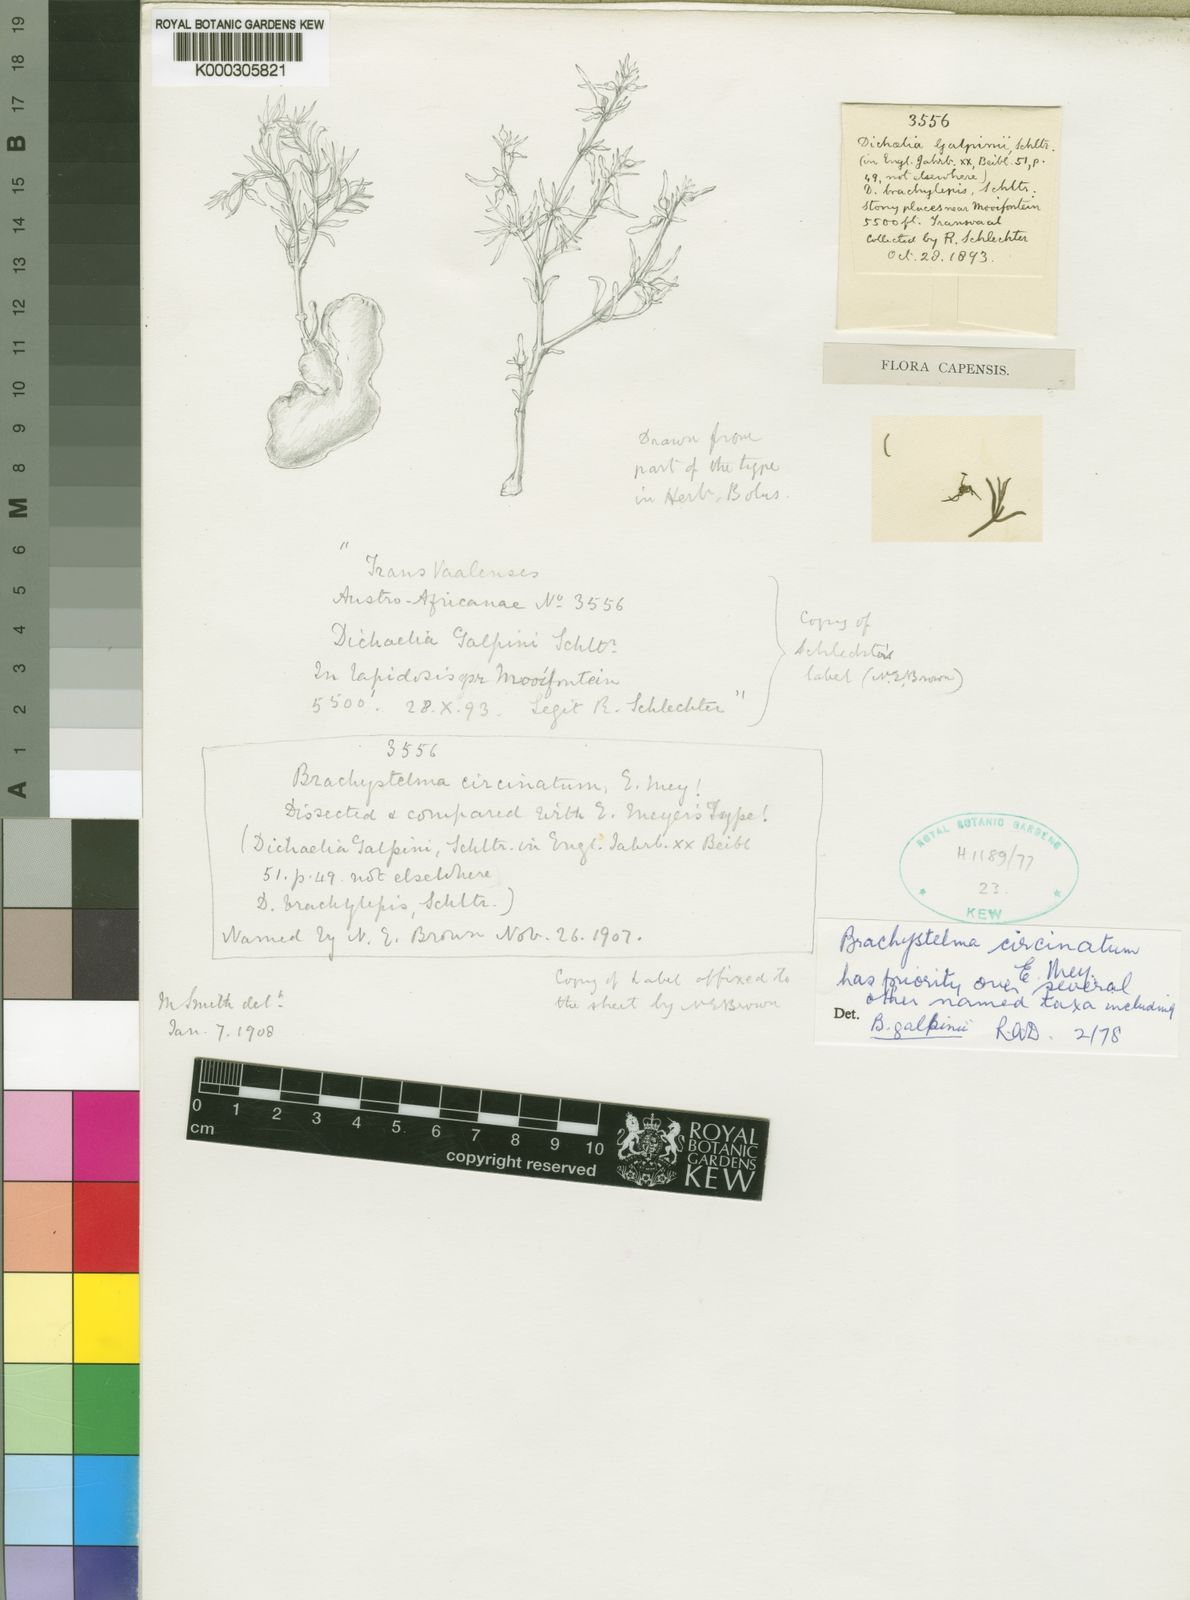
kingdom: Plantae
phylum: Tracheophyta
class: Magnoliopsida
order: Gentianales
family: Apocynaceae
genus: Ceropegia
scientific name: Ceropegia circinata
